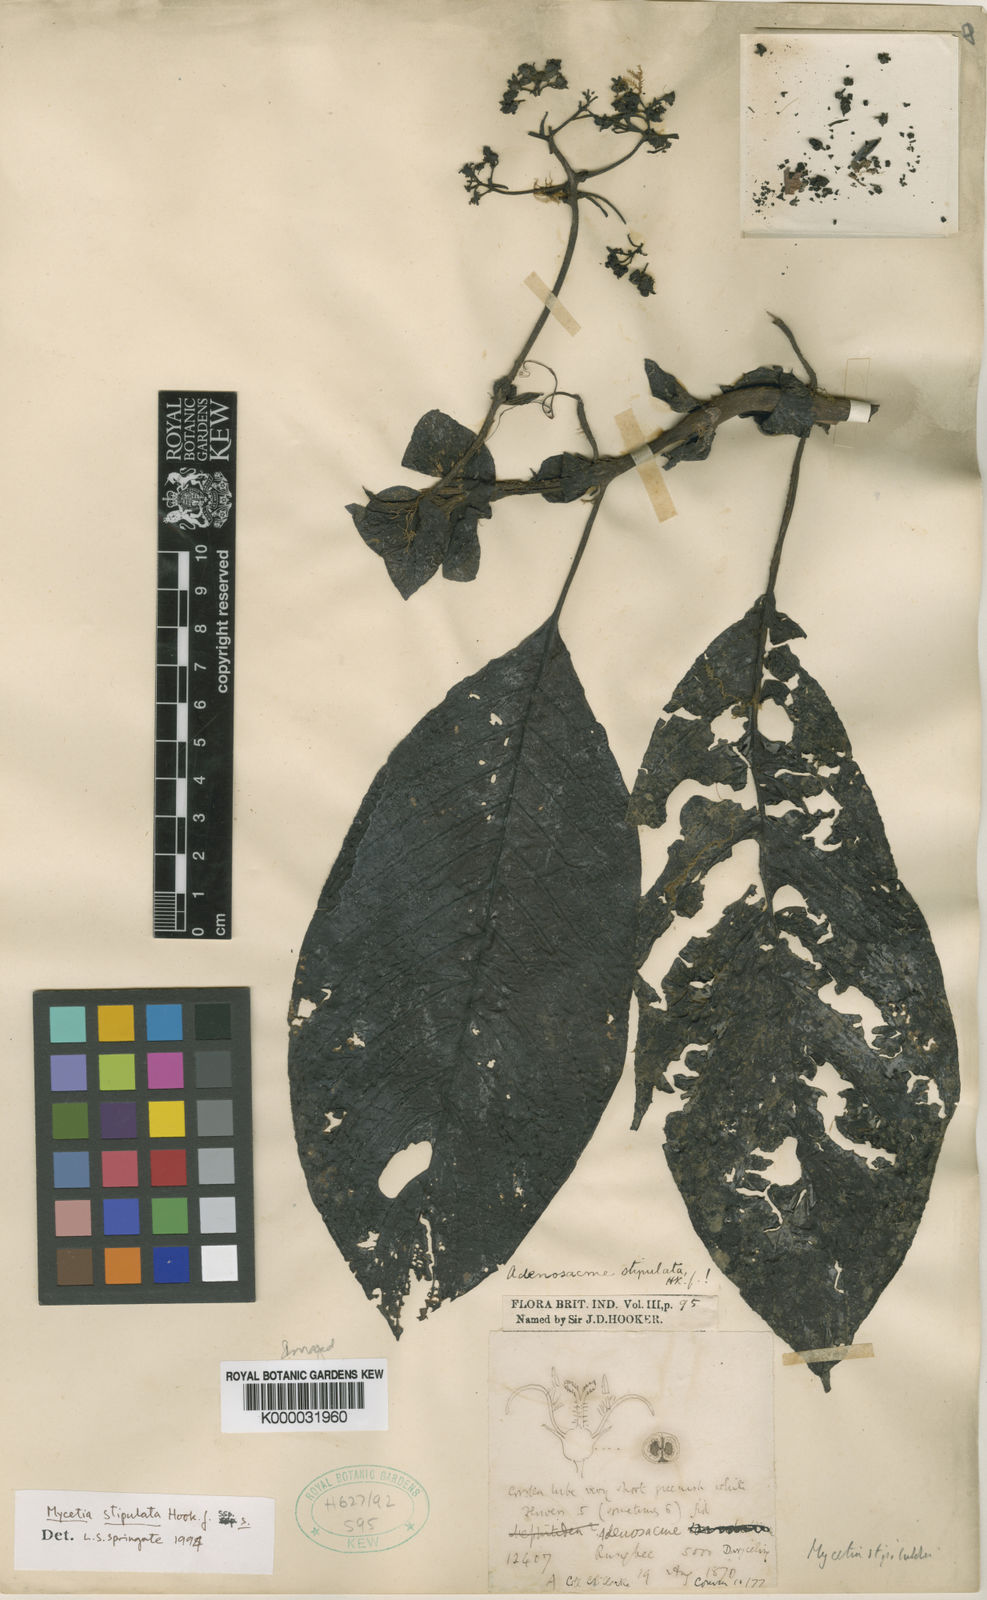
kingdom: Plantae
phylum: Tracheophyta
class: Magnoliopsida
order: Gentianales
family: Rubiaceae
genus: Mycetia
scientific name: Mycetia stipulata
